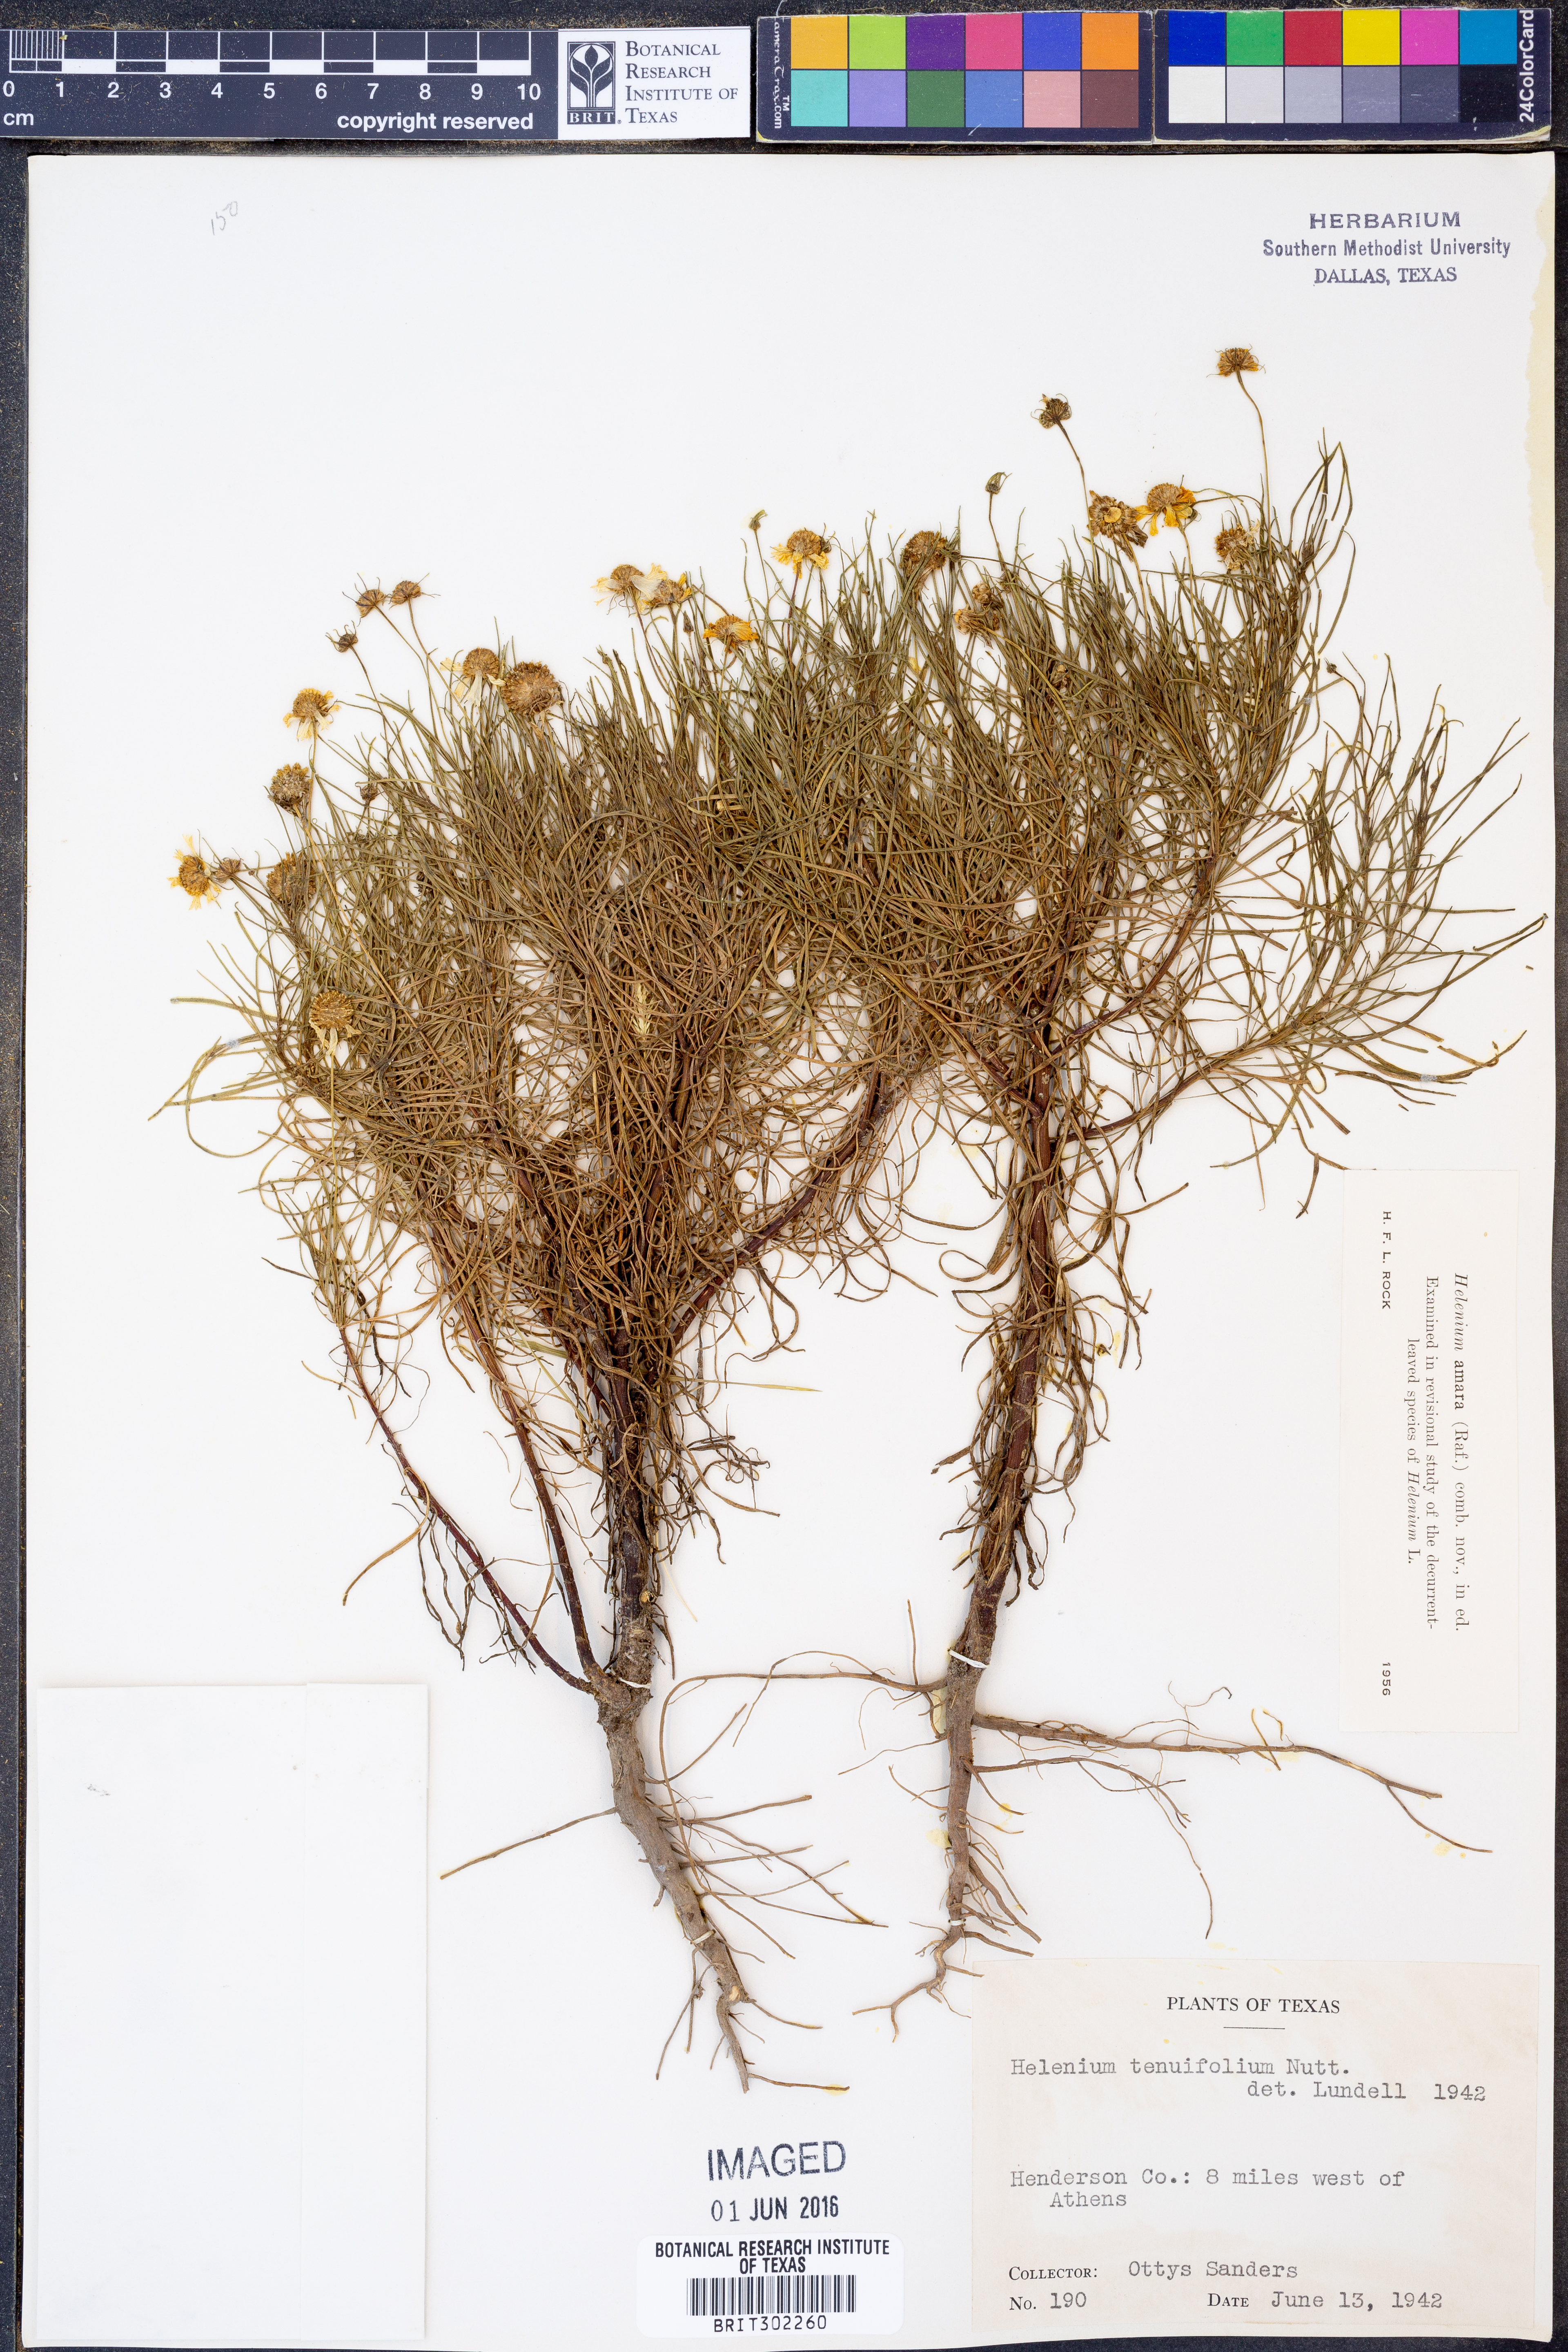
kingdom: Plantae
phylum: Tracheophyta
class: Magnoliopsida
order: Asterales
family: Asteraceae
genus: Helenium
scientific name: Helenium amarum
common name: Bitter sneezeweed
